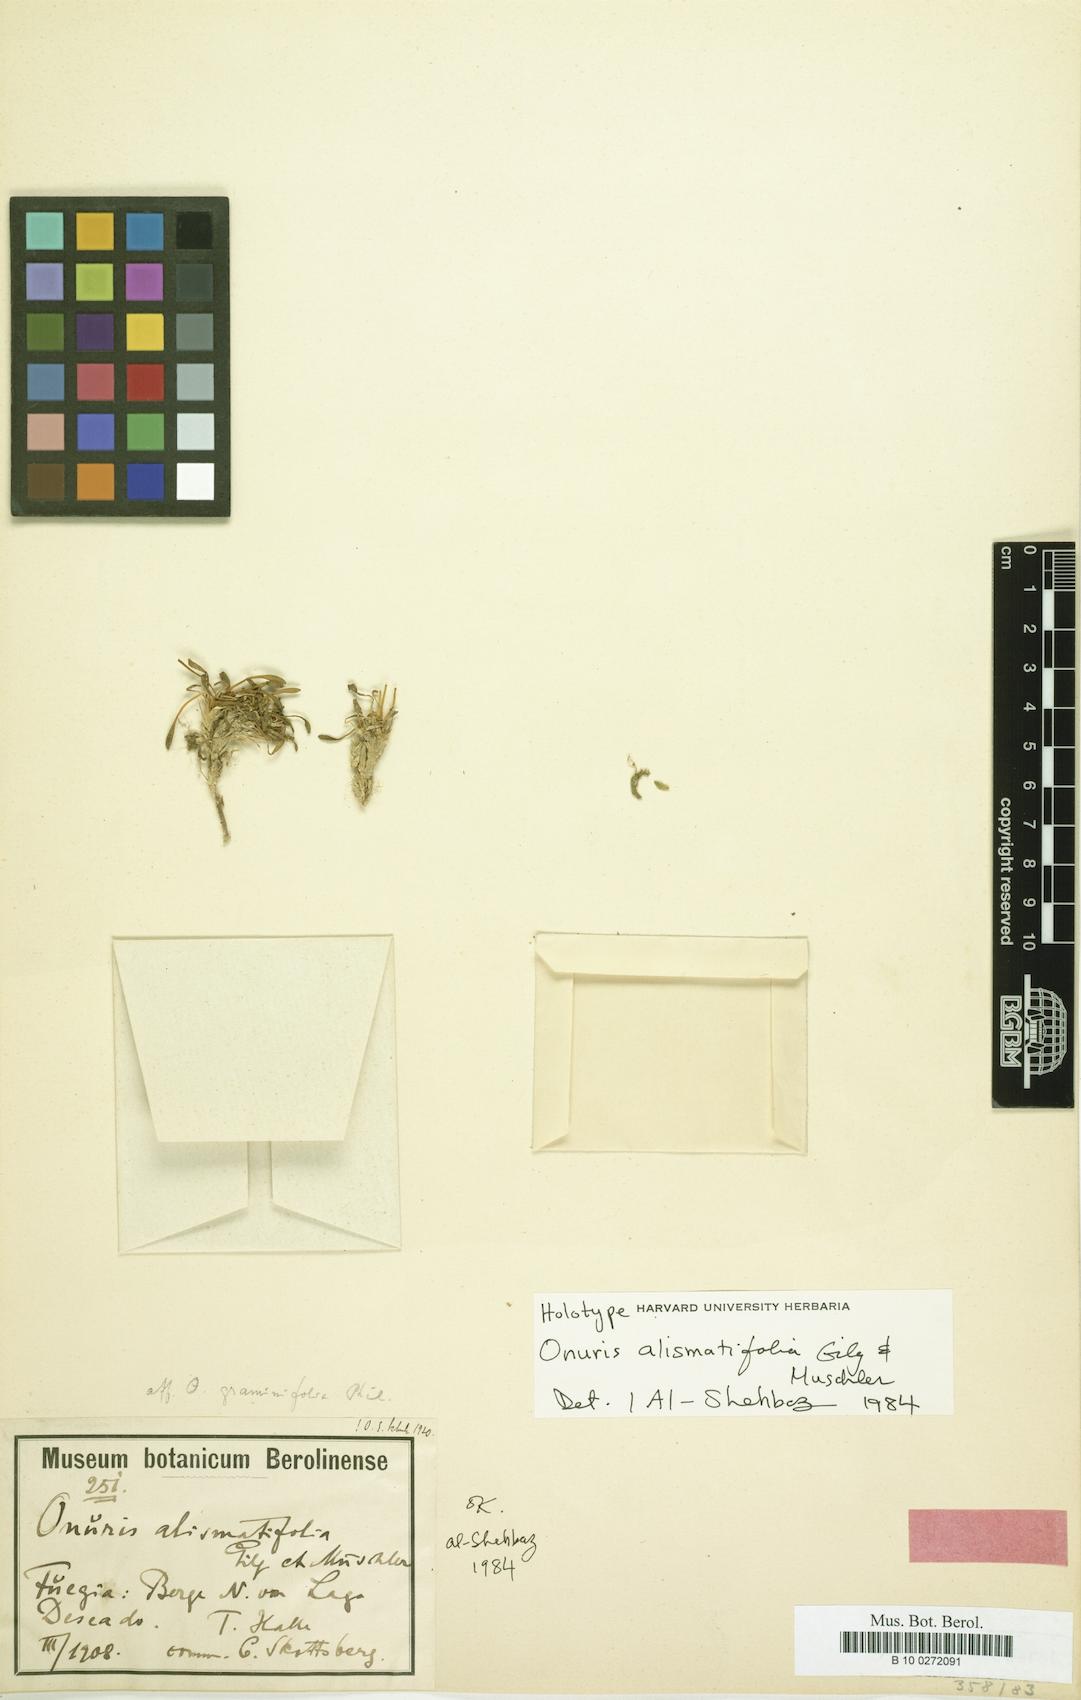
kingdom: Plantae
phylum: Tracheophyta
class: Magnoliopsida
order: Brassicales
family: Brassicaceae
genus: Onuris
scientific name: Onuris alismatifolia
